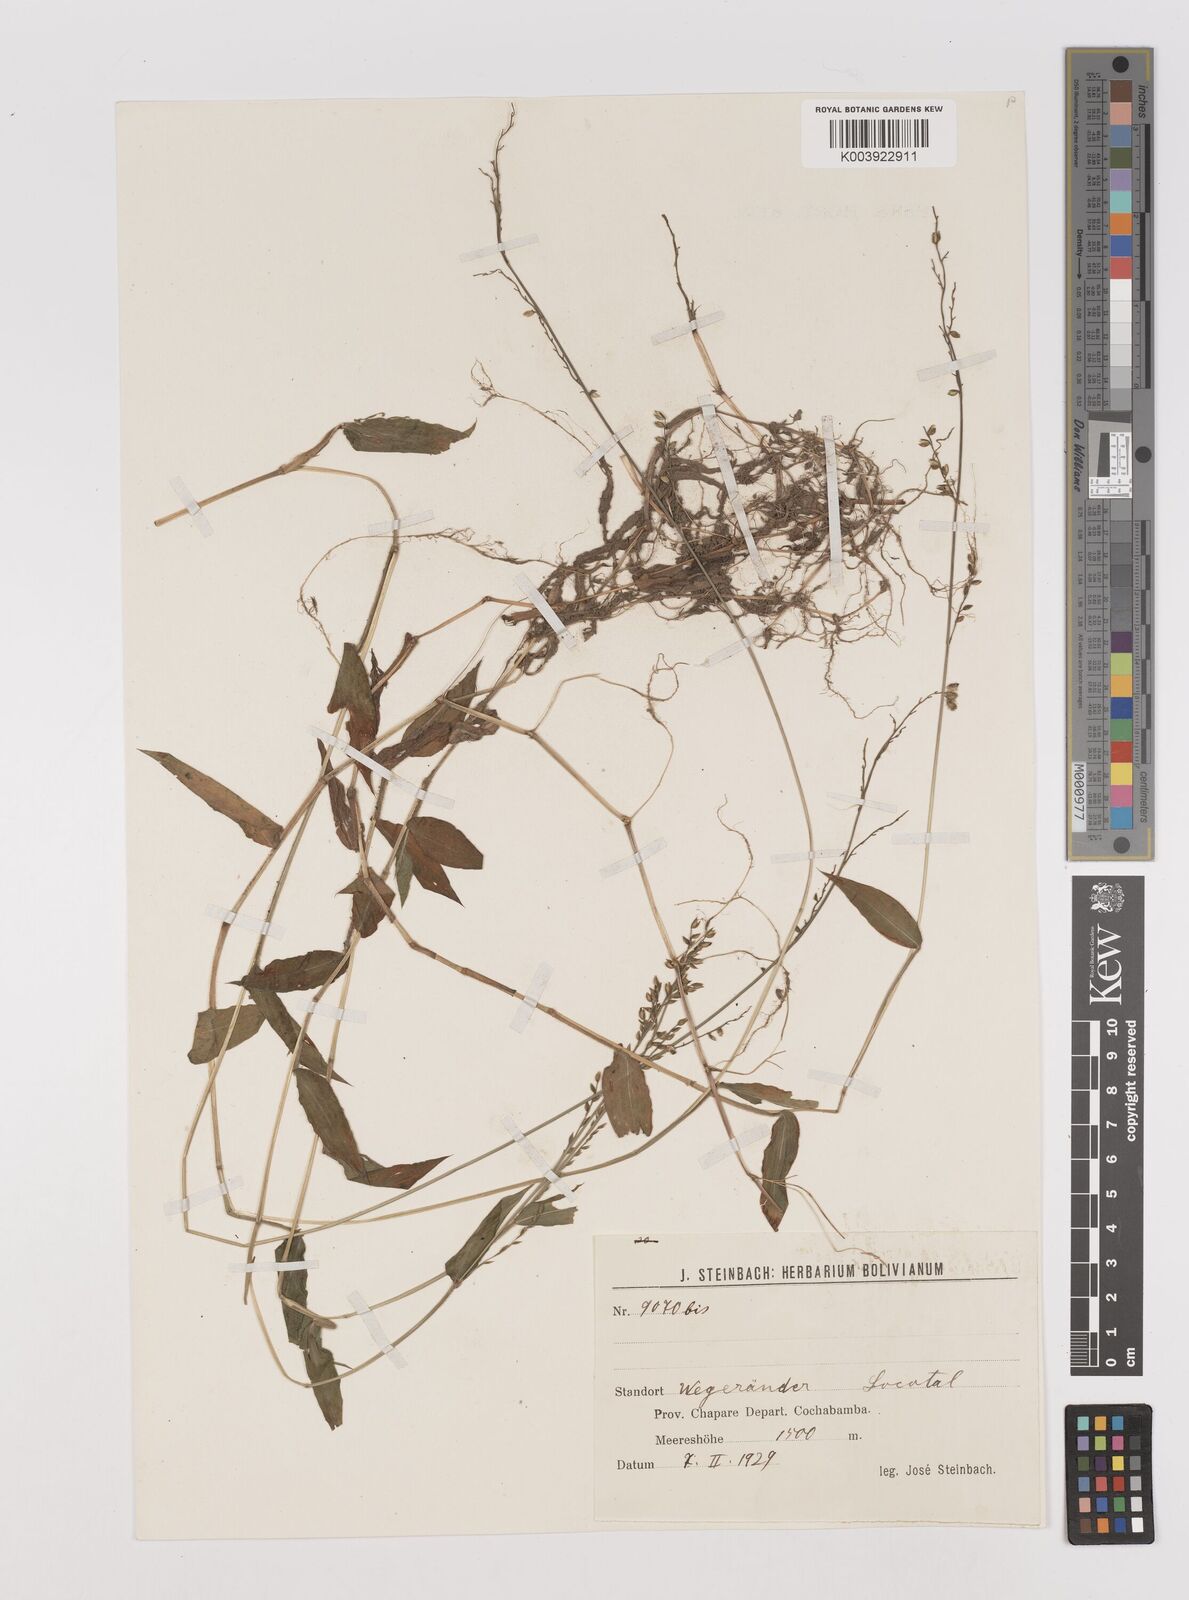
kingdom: Plantae
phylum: Tracheophyta
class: Liliopsida
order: Poales
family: Poaceae
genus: Pseudechinolaena
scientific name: Pseudechinolaena polystachya
